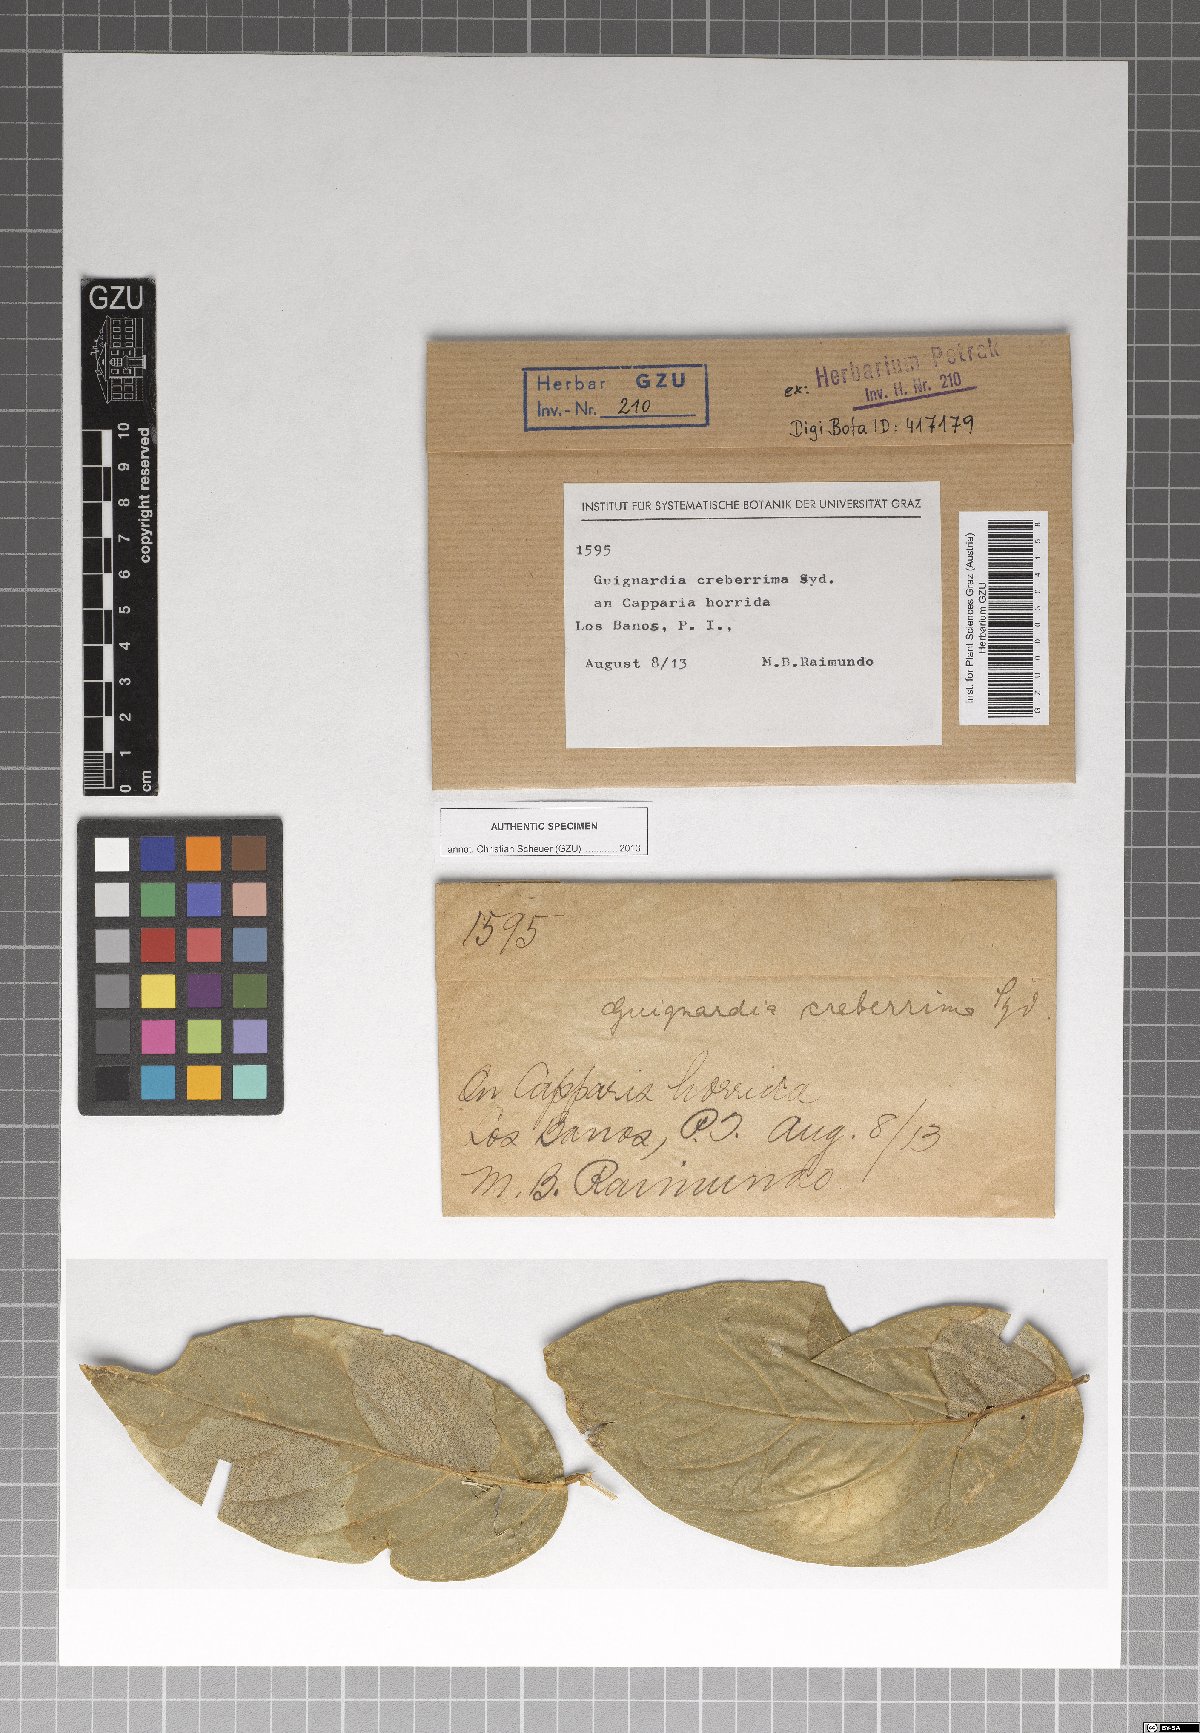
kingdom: Fungi
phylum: Ascomycota
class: Dothideomycetes
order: Botryosphaeriales
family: Botryosphaeriaceae
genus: Melanops
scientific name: Melanops creberrima
